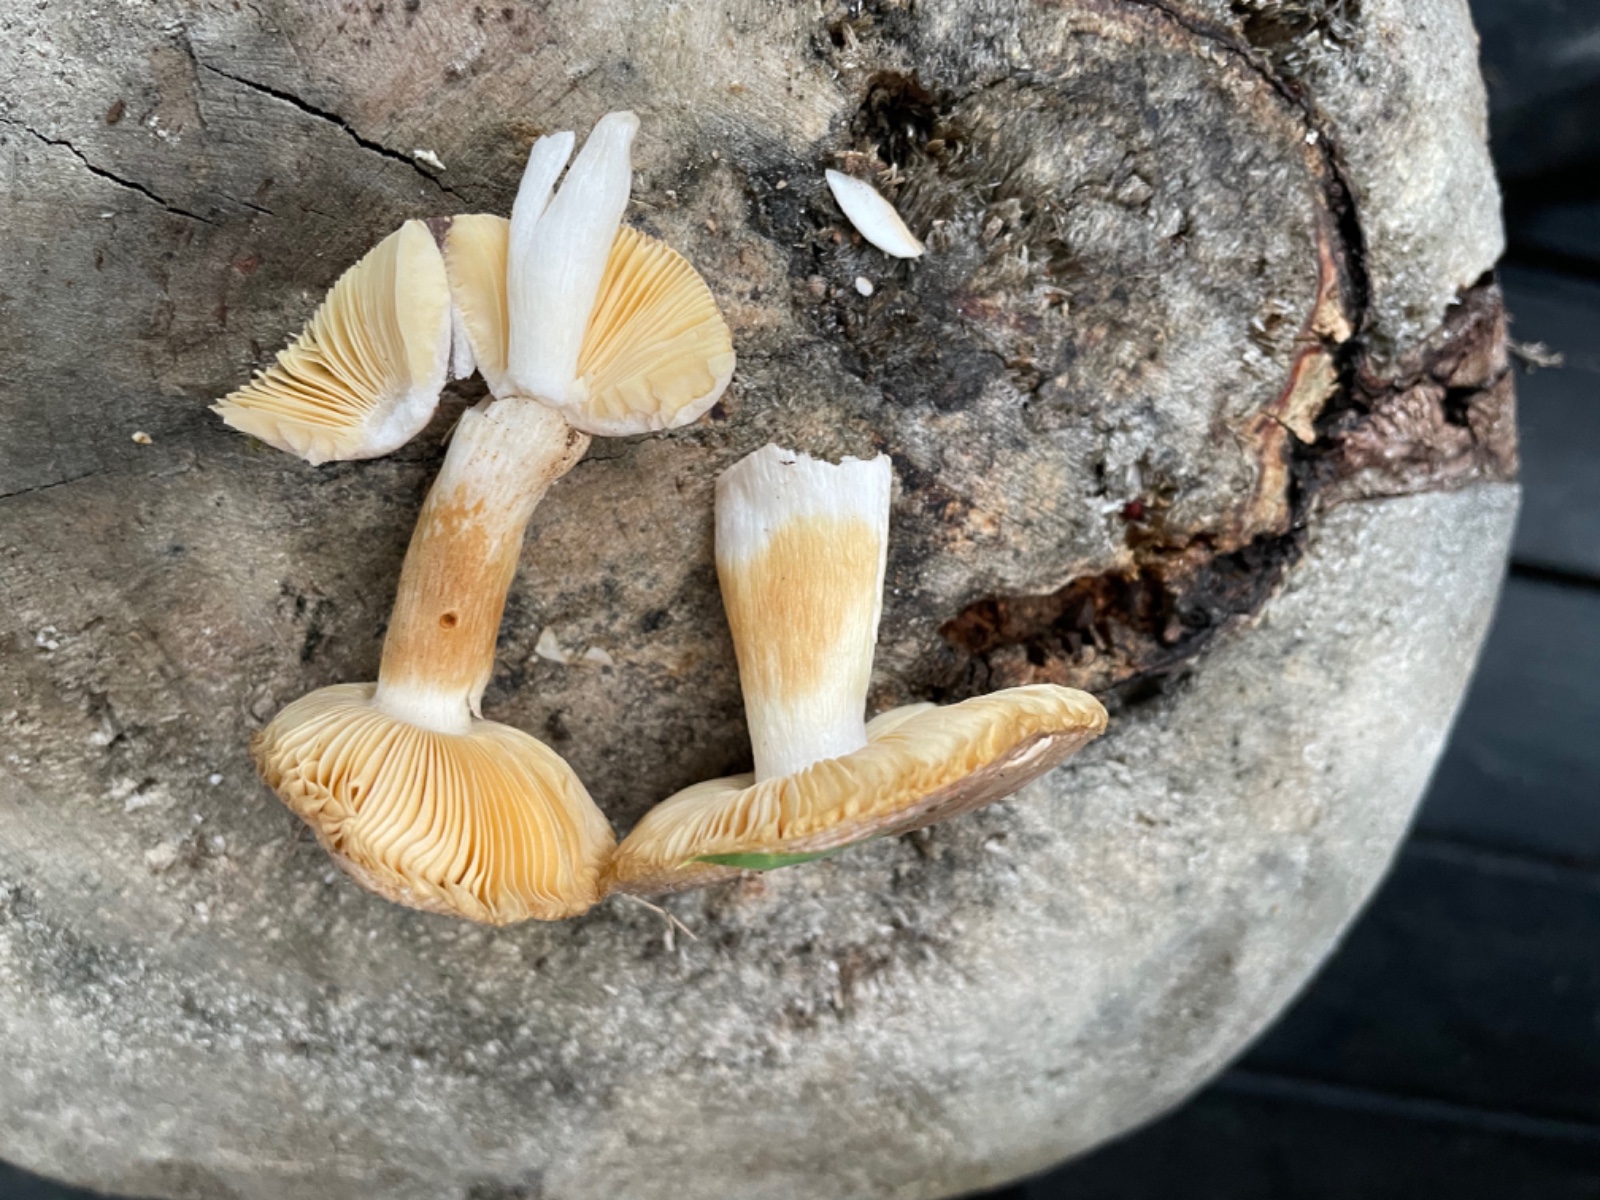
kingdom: Fungi
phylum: Basidiomycota
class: Agaricomycetes
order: Russulales
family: Russulaceae
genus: Russula
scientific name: Russula odorata
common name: duft-skørhat
